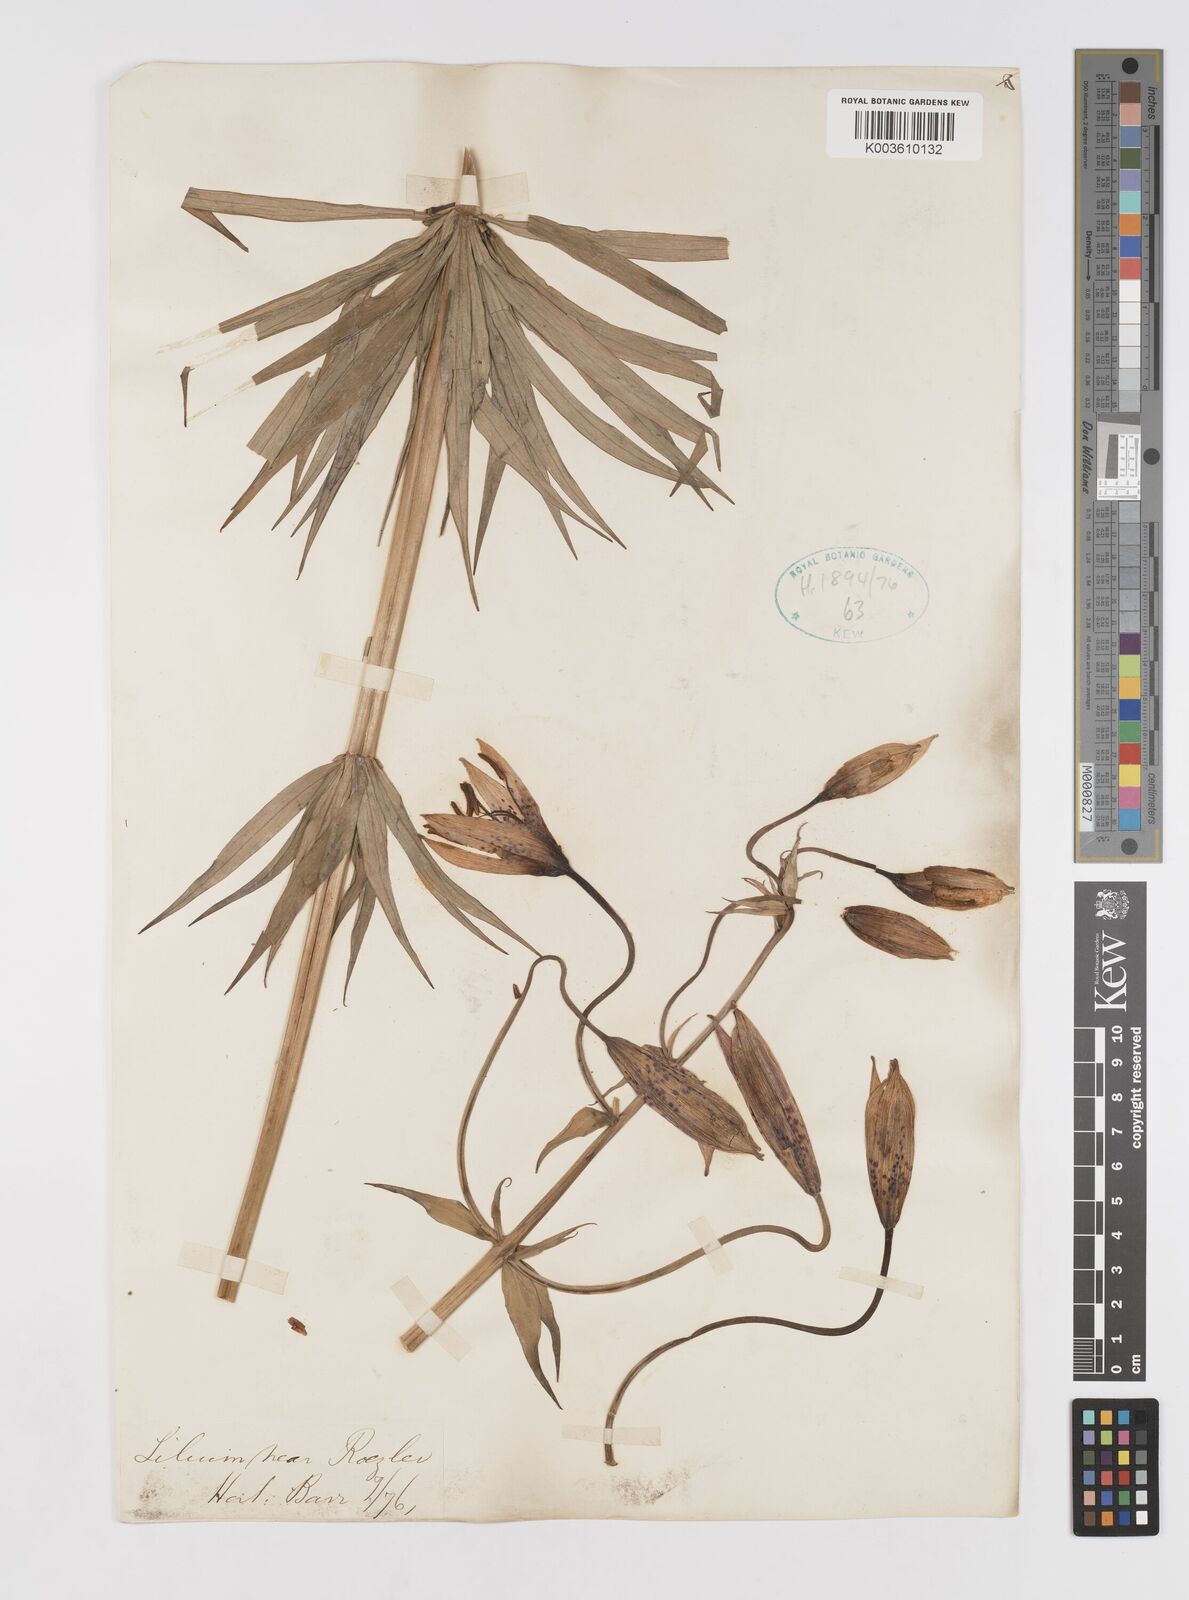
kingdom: Plantae
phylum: Tracheophyta
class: Liliopsida
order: Liliales
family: Liliaceae
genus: Lilium
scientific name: Lilium occidentale
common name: Eureka lily
